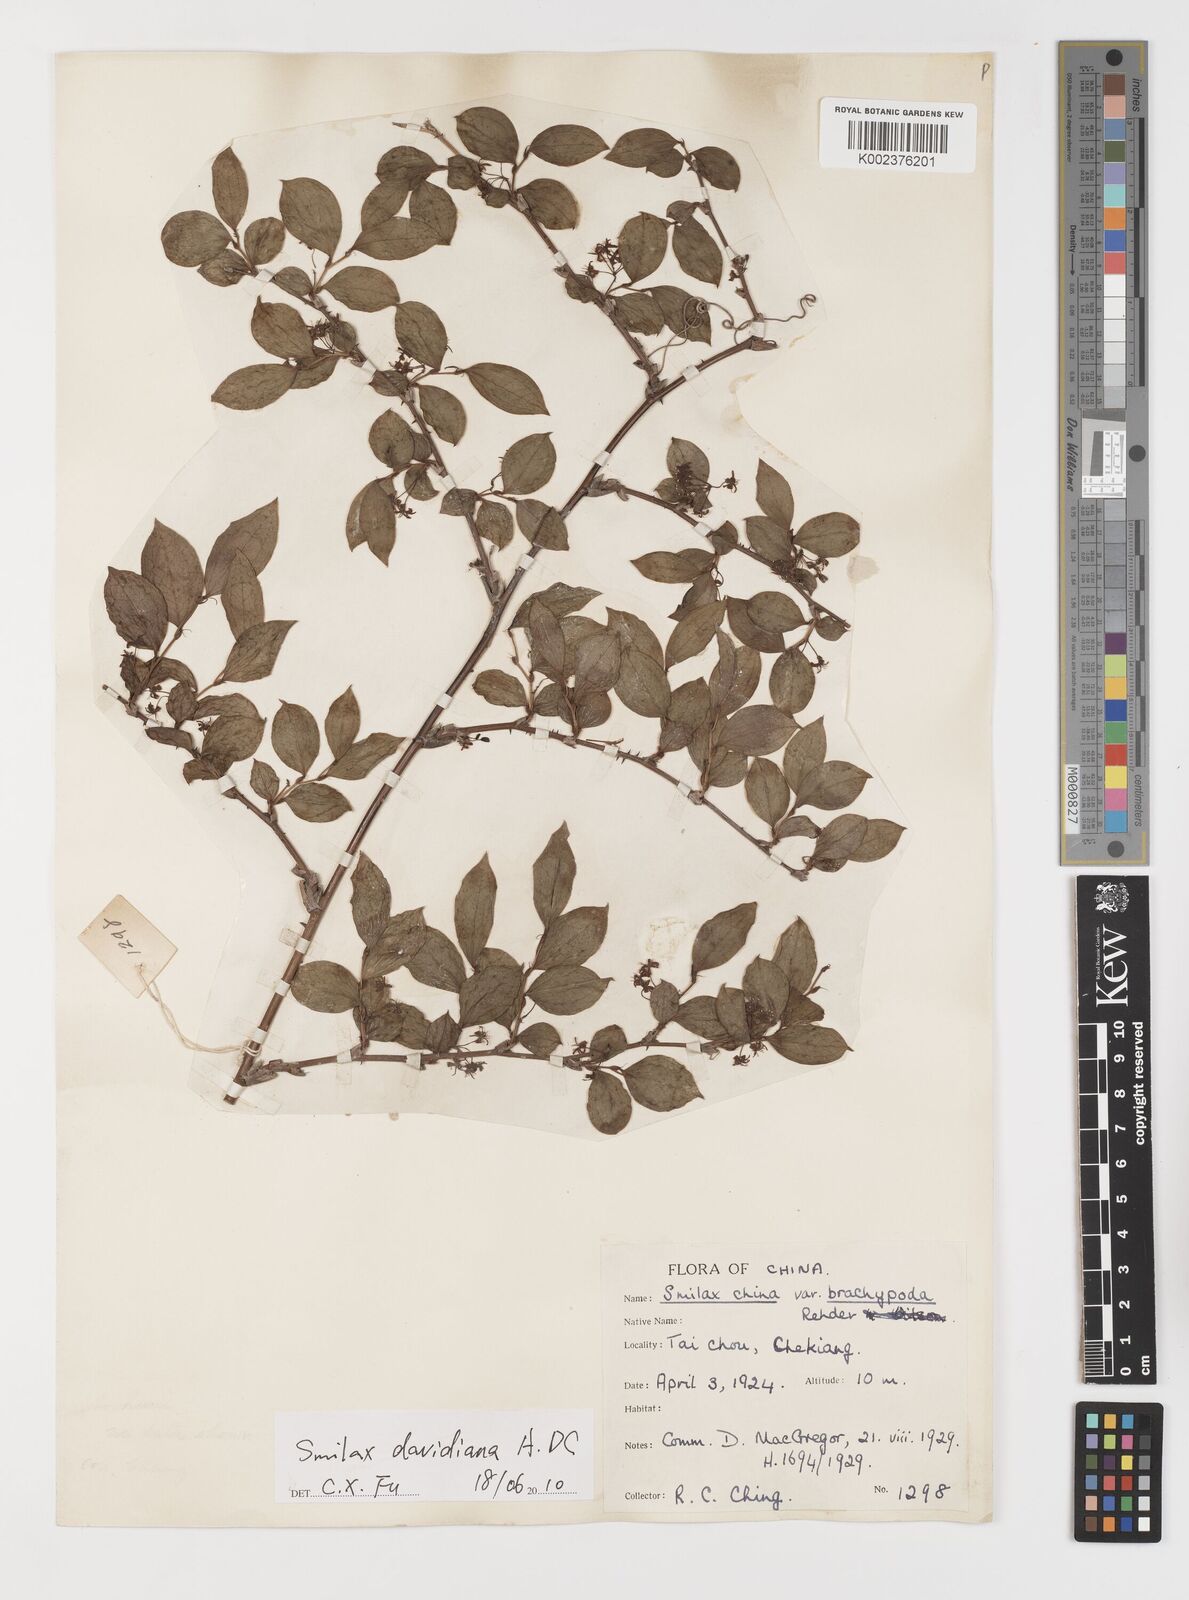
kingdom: Plantae
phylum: Tracheophyta
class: Liliopsida
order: Liliales
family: Smilacaceae
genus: Smilax
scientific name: Smilax davidiana
